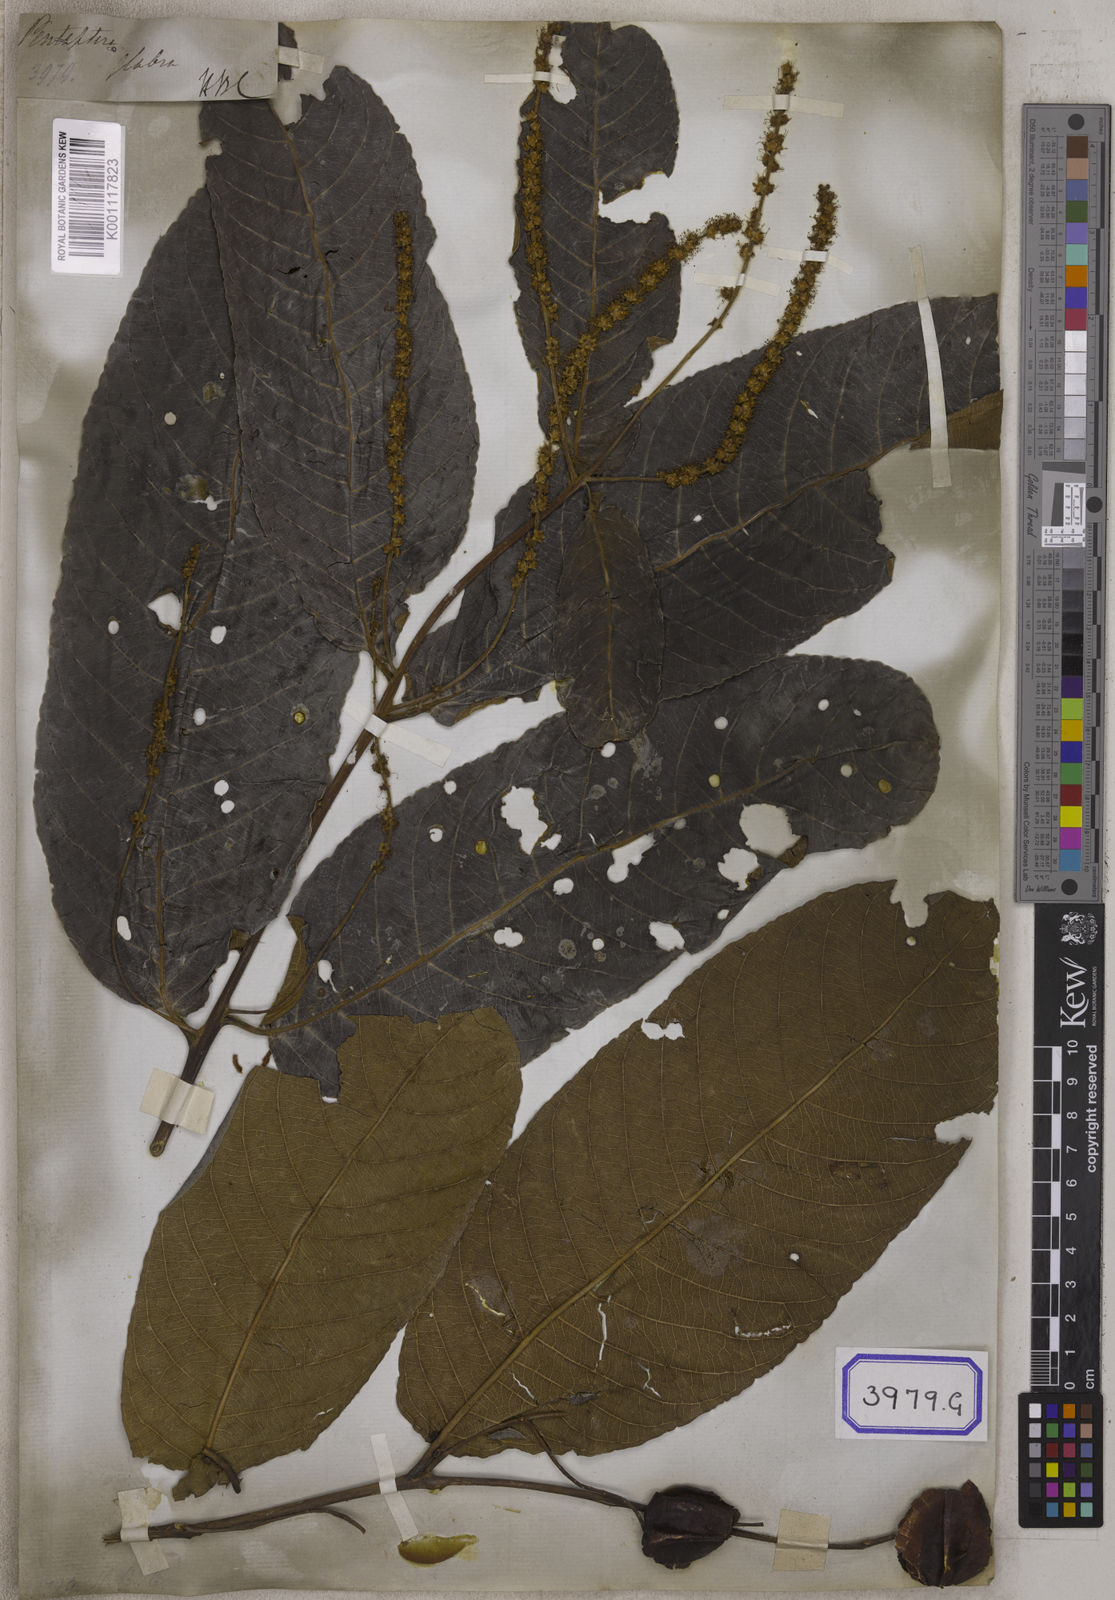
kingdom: Plantae
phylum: Tracheophyta
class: Magnoliopsida
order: Myrtales
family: Combretaceae
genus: Terminalia
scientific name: Terminalia arjuna
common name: Arjun
